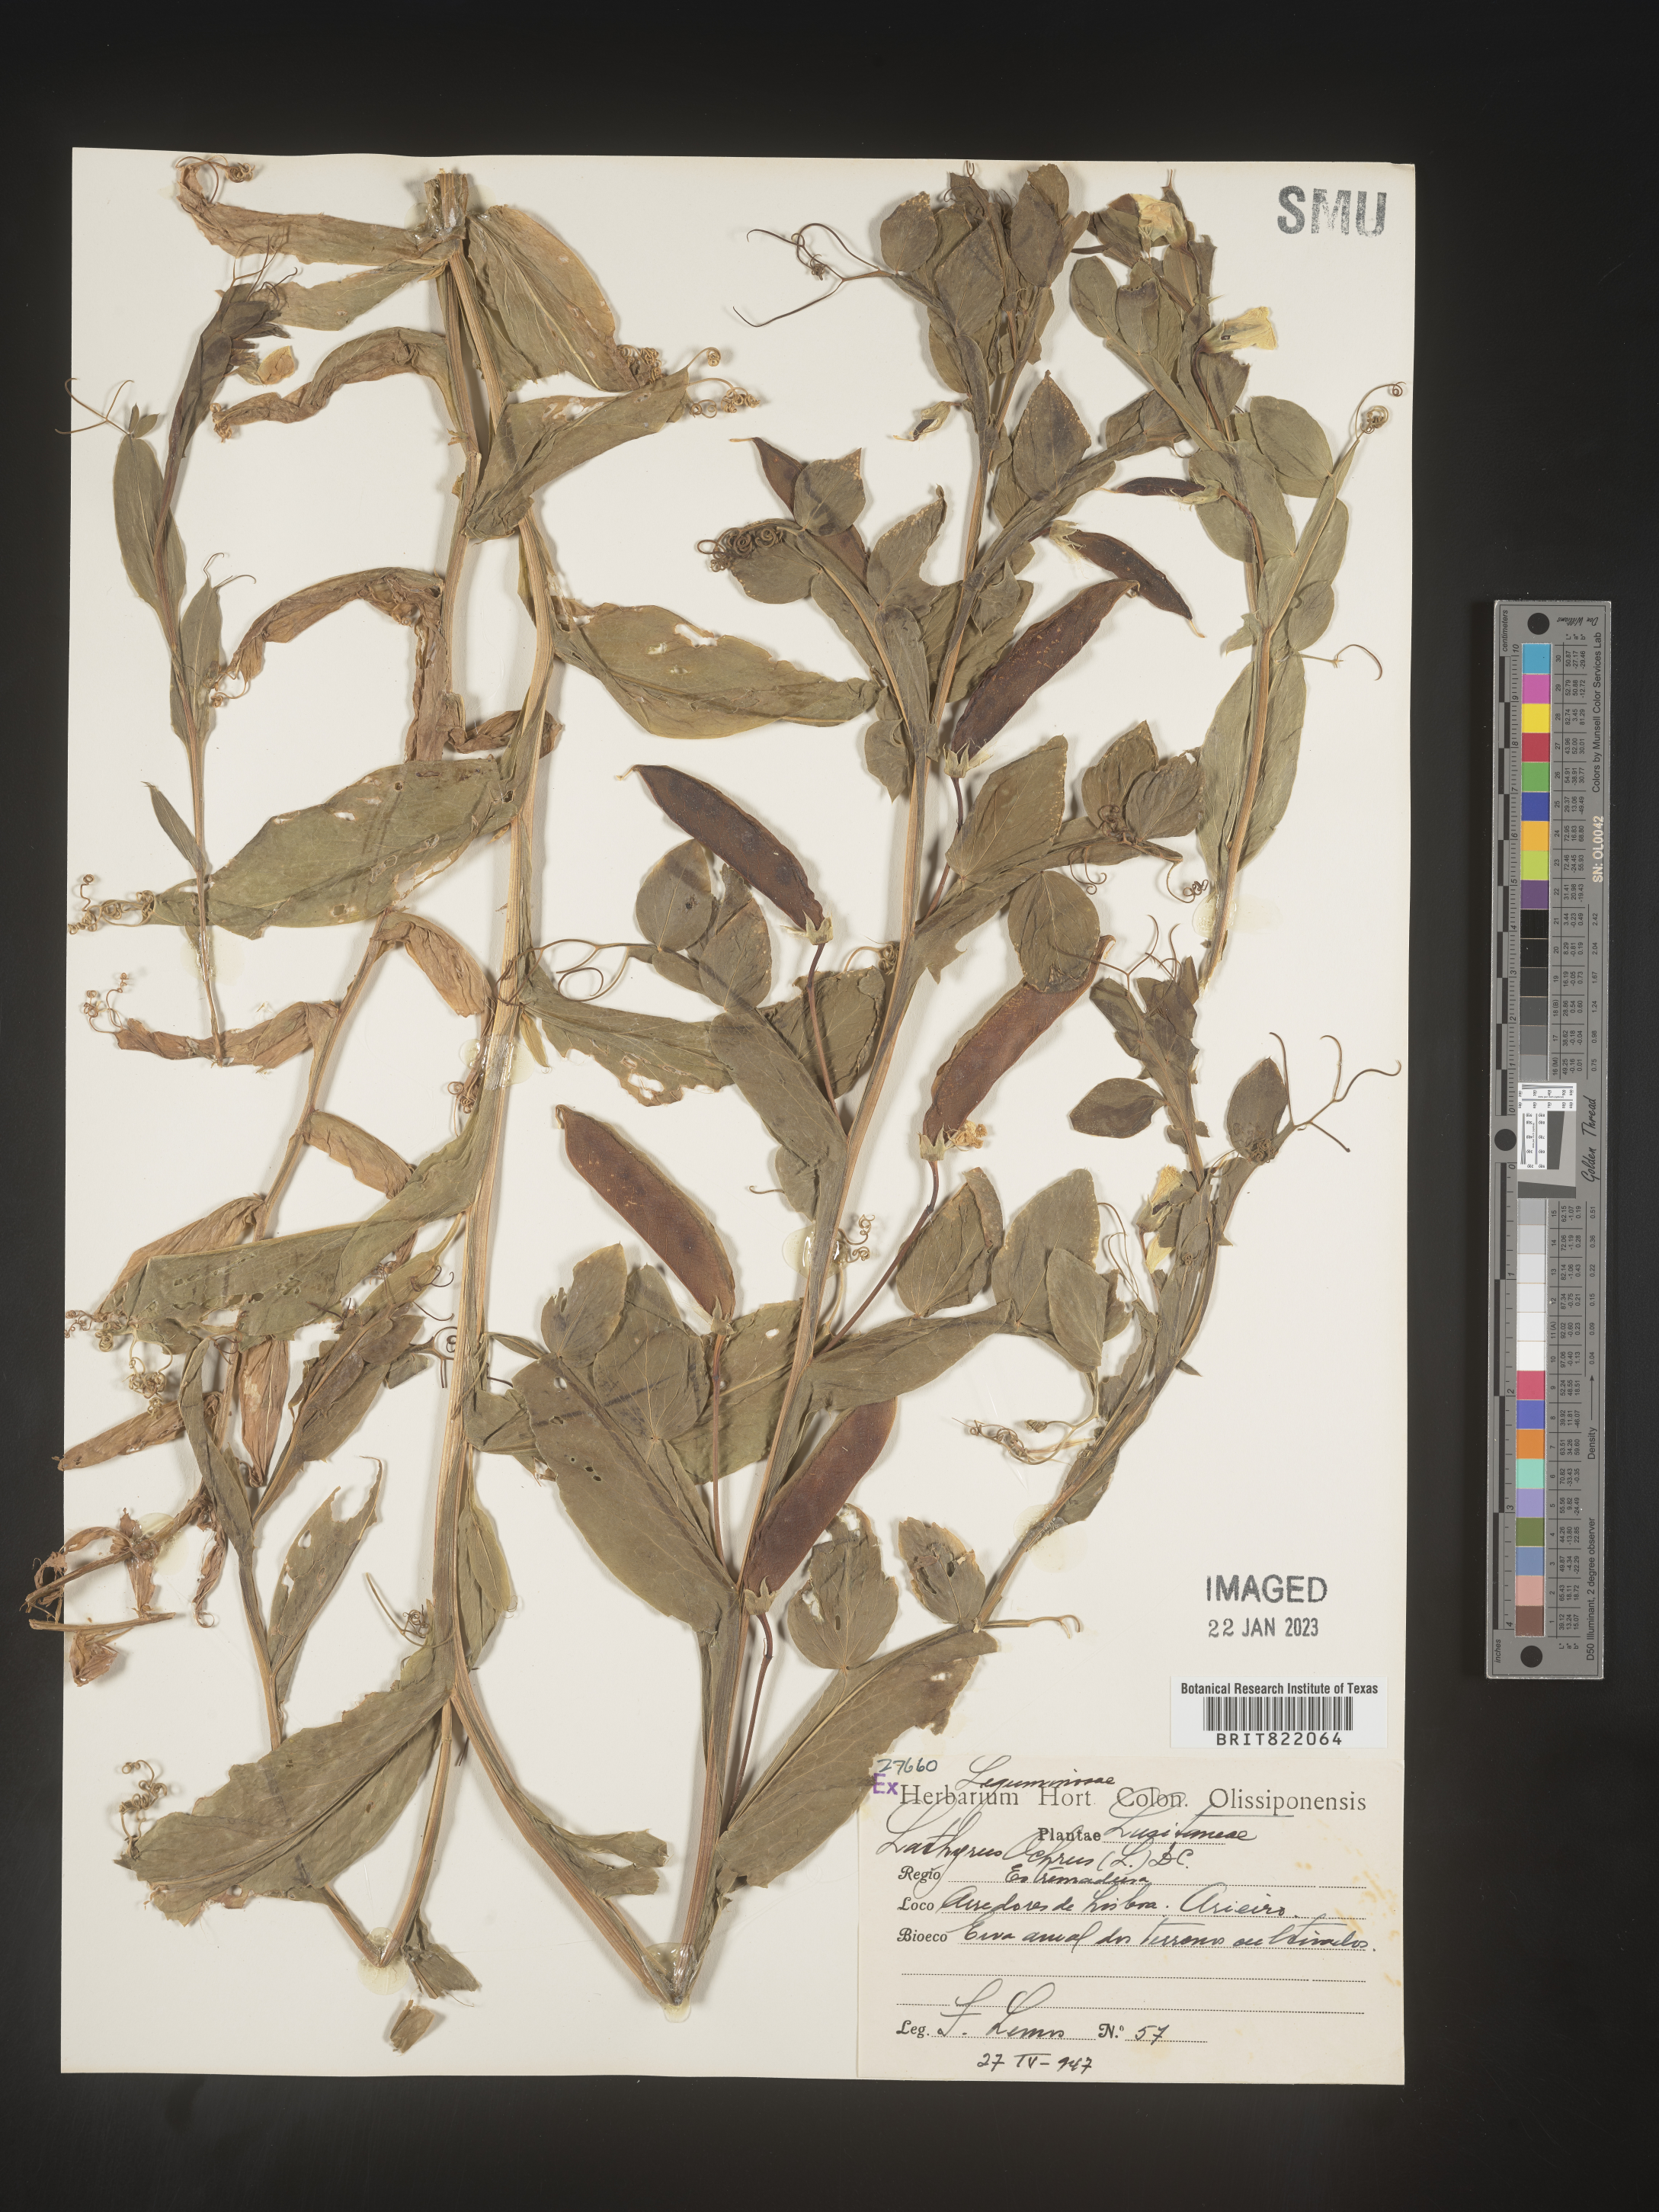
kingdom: Plantae
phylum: Tracheophyta
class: Magnoliopsida
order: Fabales
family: Fabaceae
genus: Lathyrus
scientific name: Lathyrus
